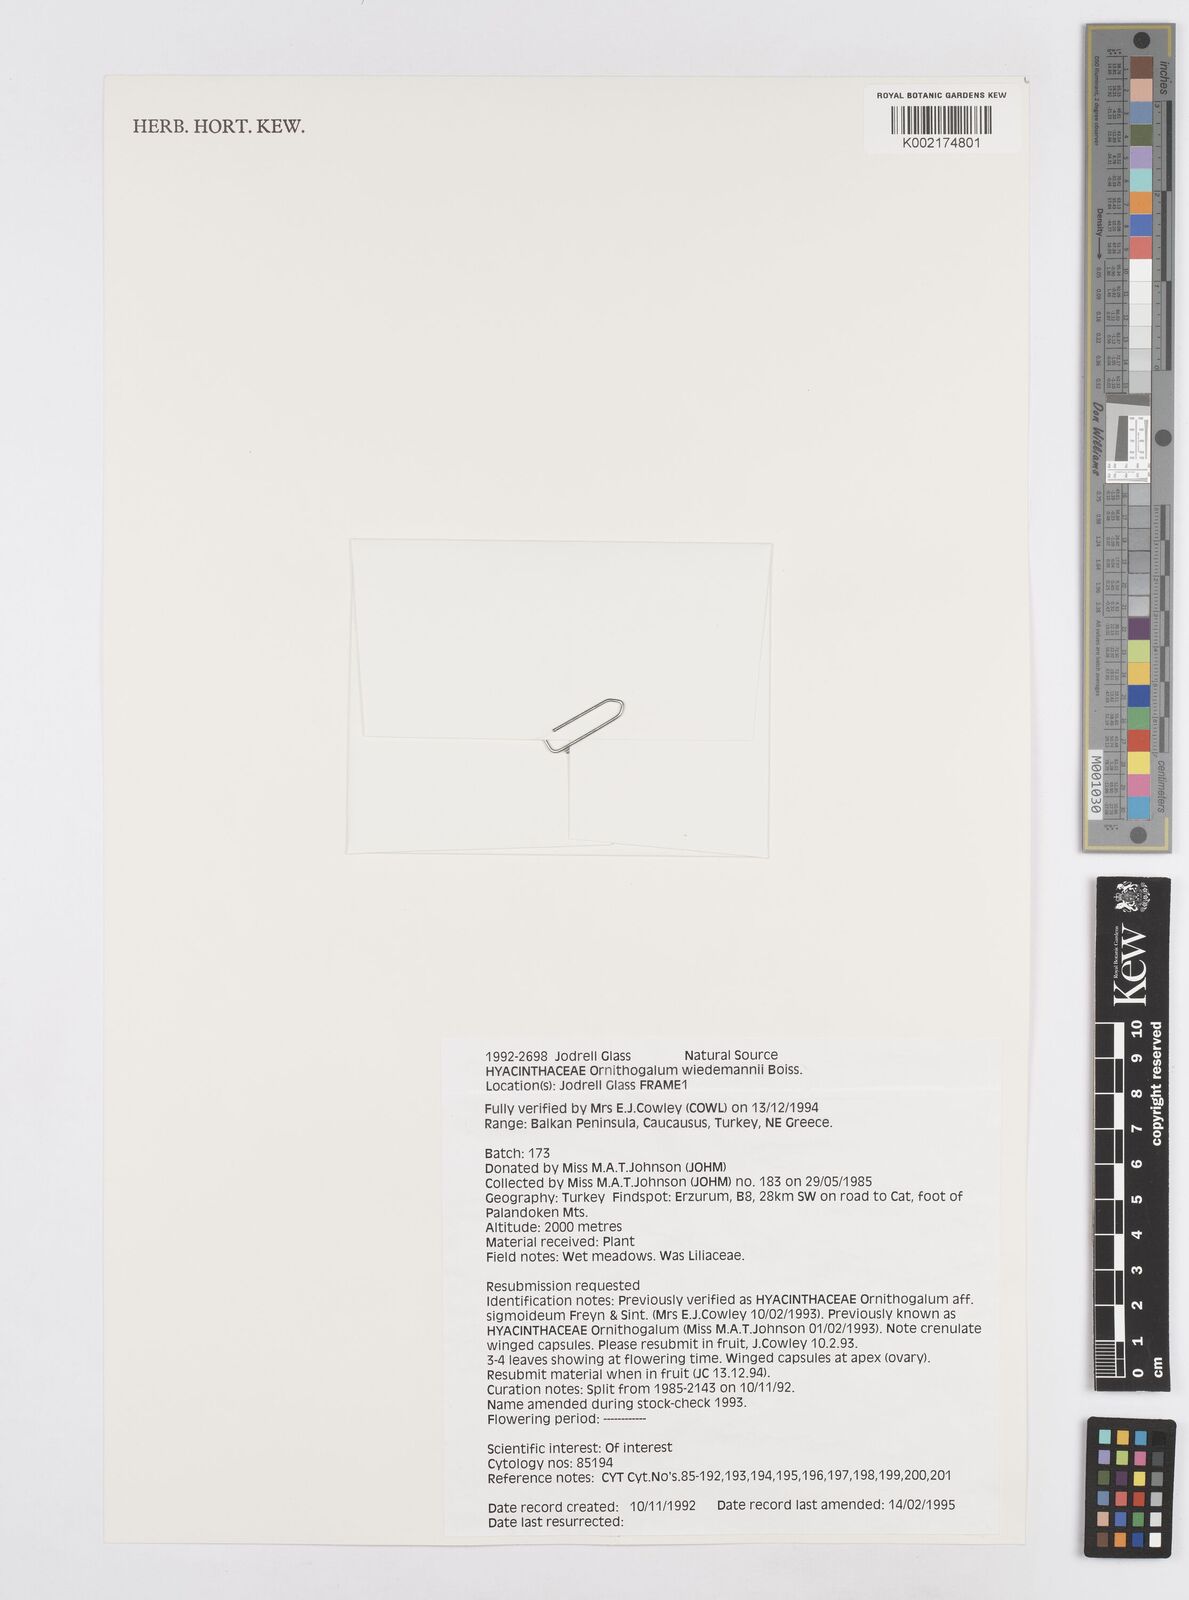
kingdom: Plantae
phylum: Tracheophyta
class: Liliopsida
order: Asparagales
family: Asparagaceae
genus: Ornithogalum
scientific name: Ornithogalum wiedemannii
